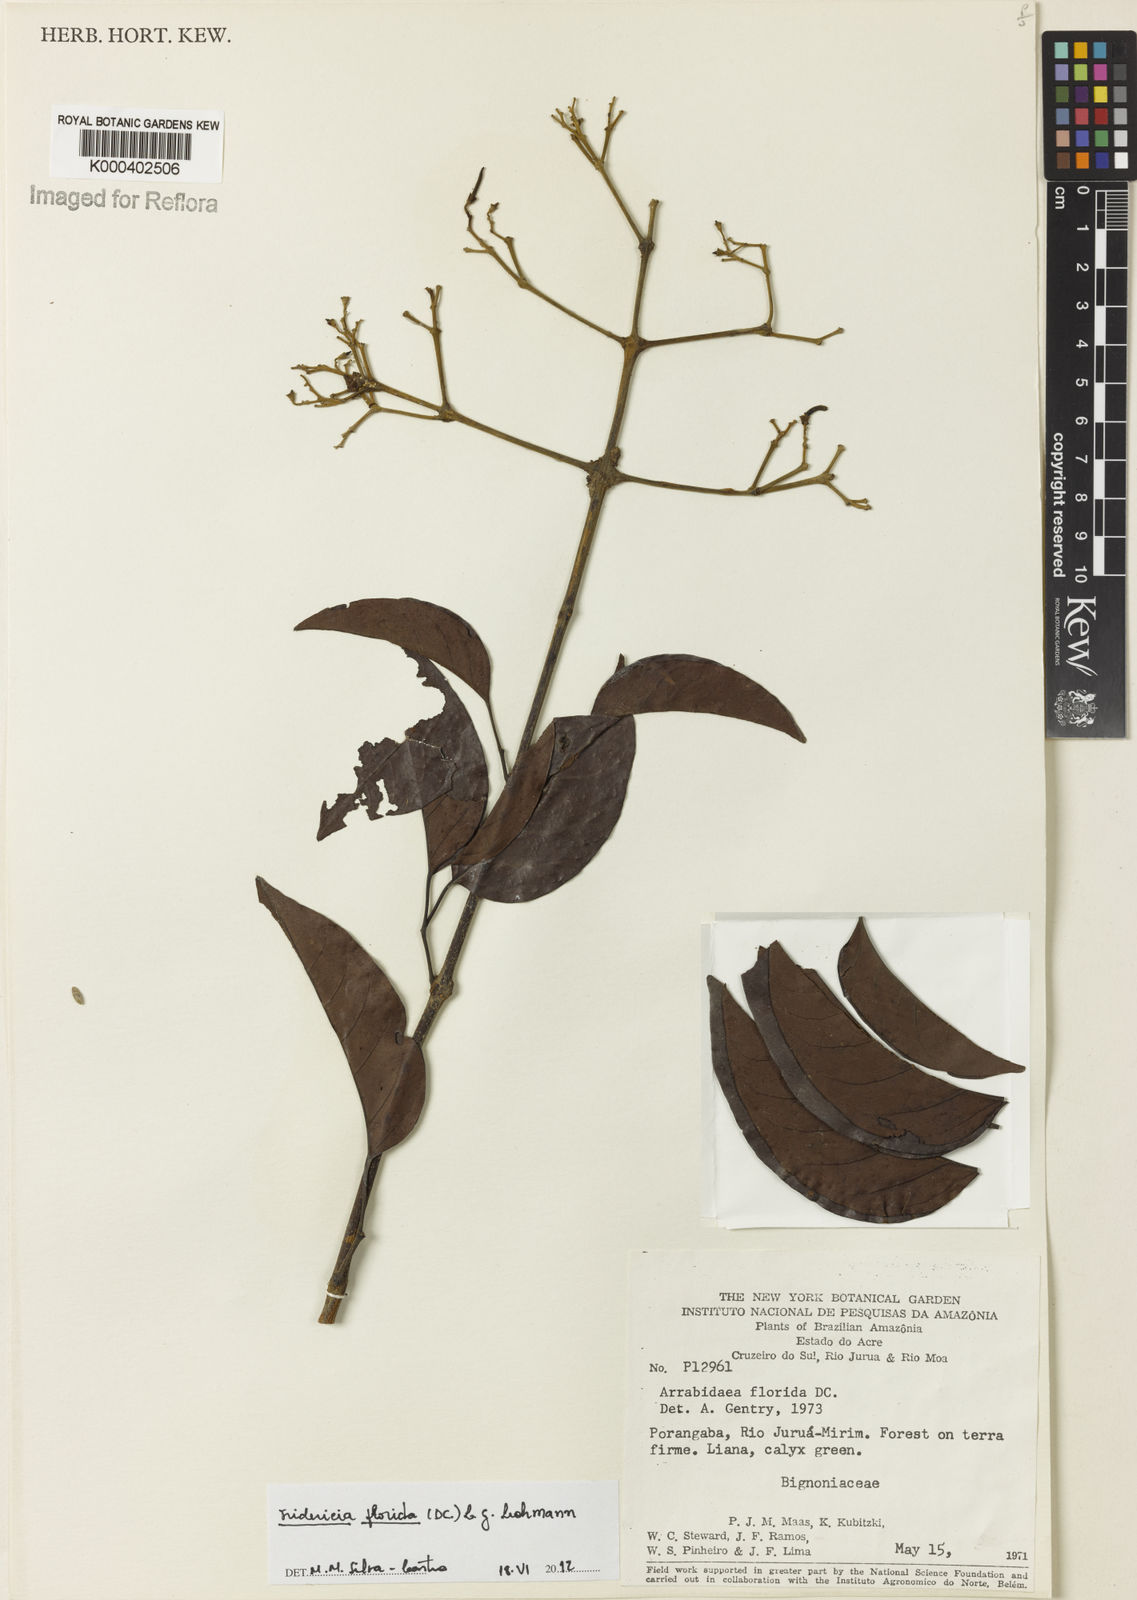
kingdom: Plantae
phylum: Tracheophyta
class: Magnoliopsida
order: Lamiales
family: Bignoniaceae
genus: Fridericia
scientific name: Fridericia florida
